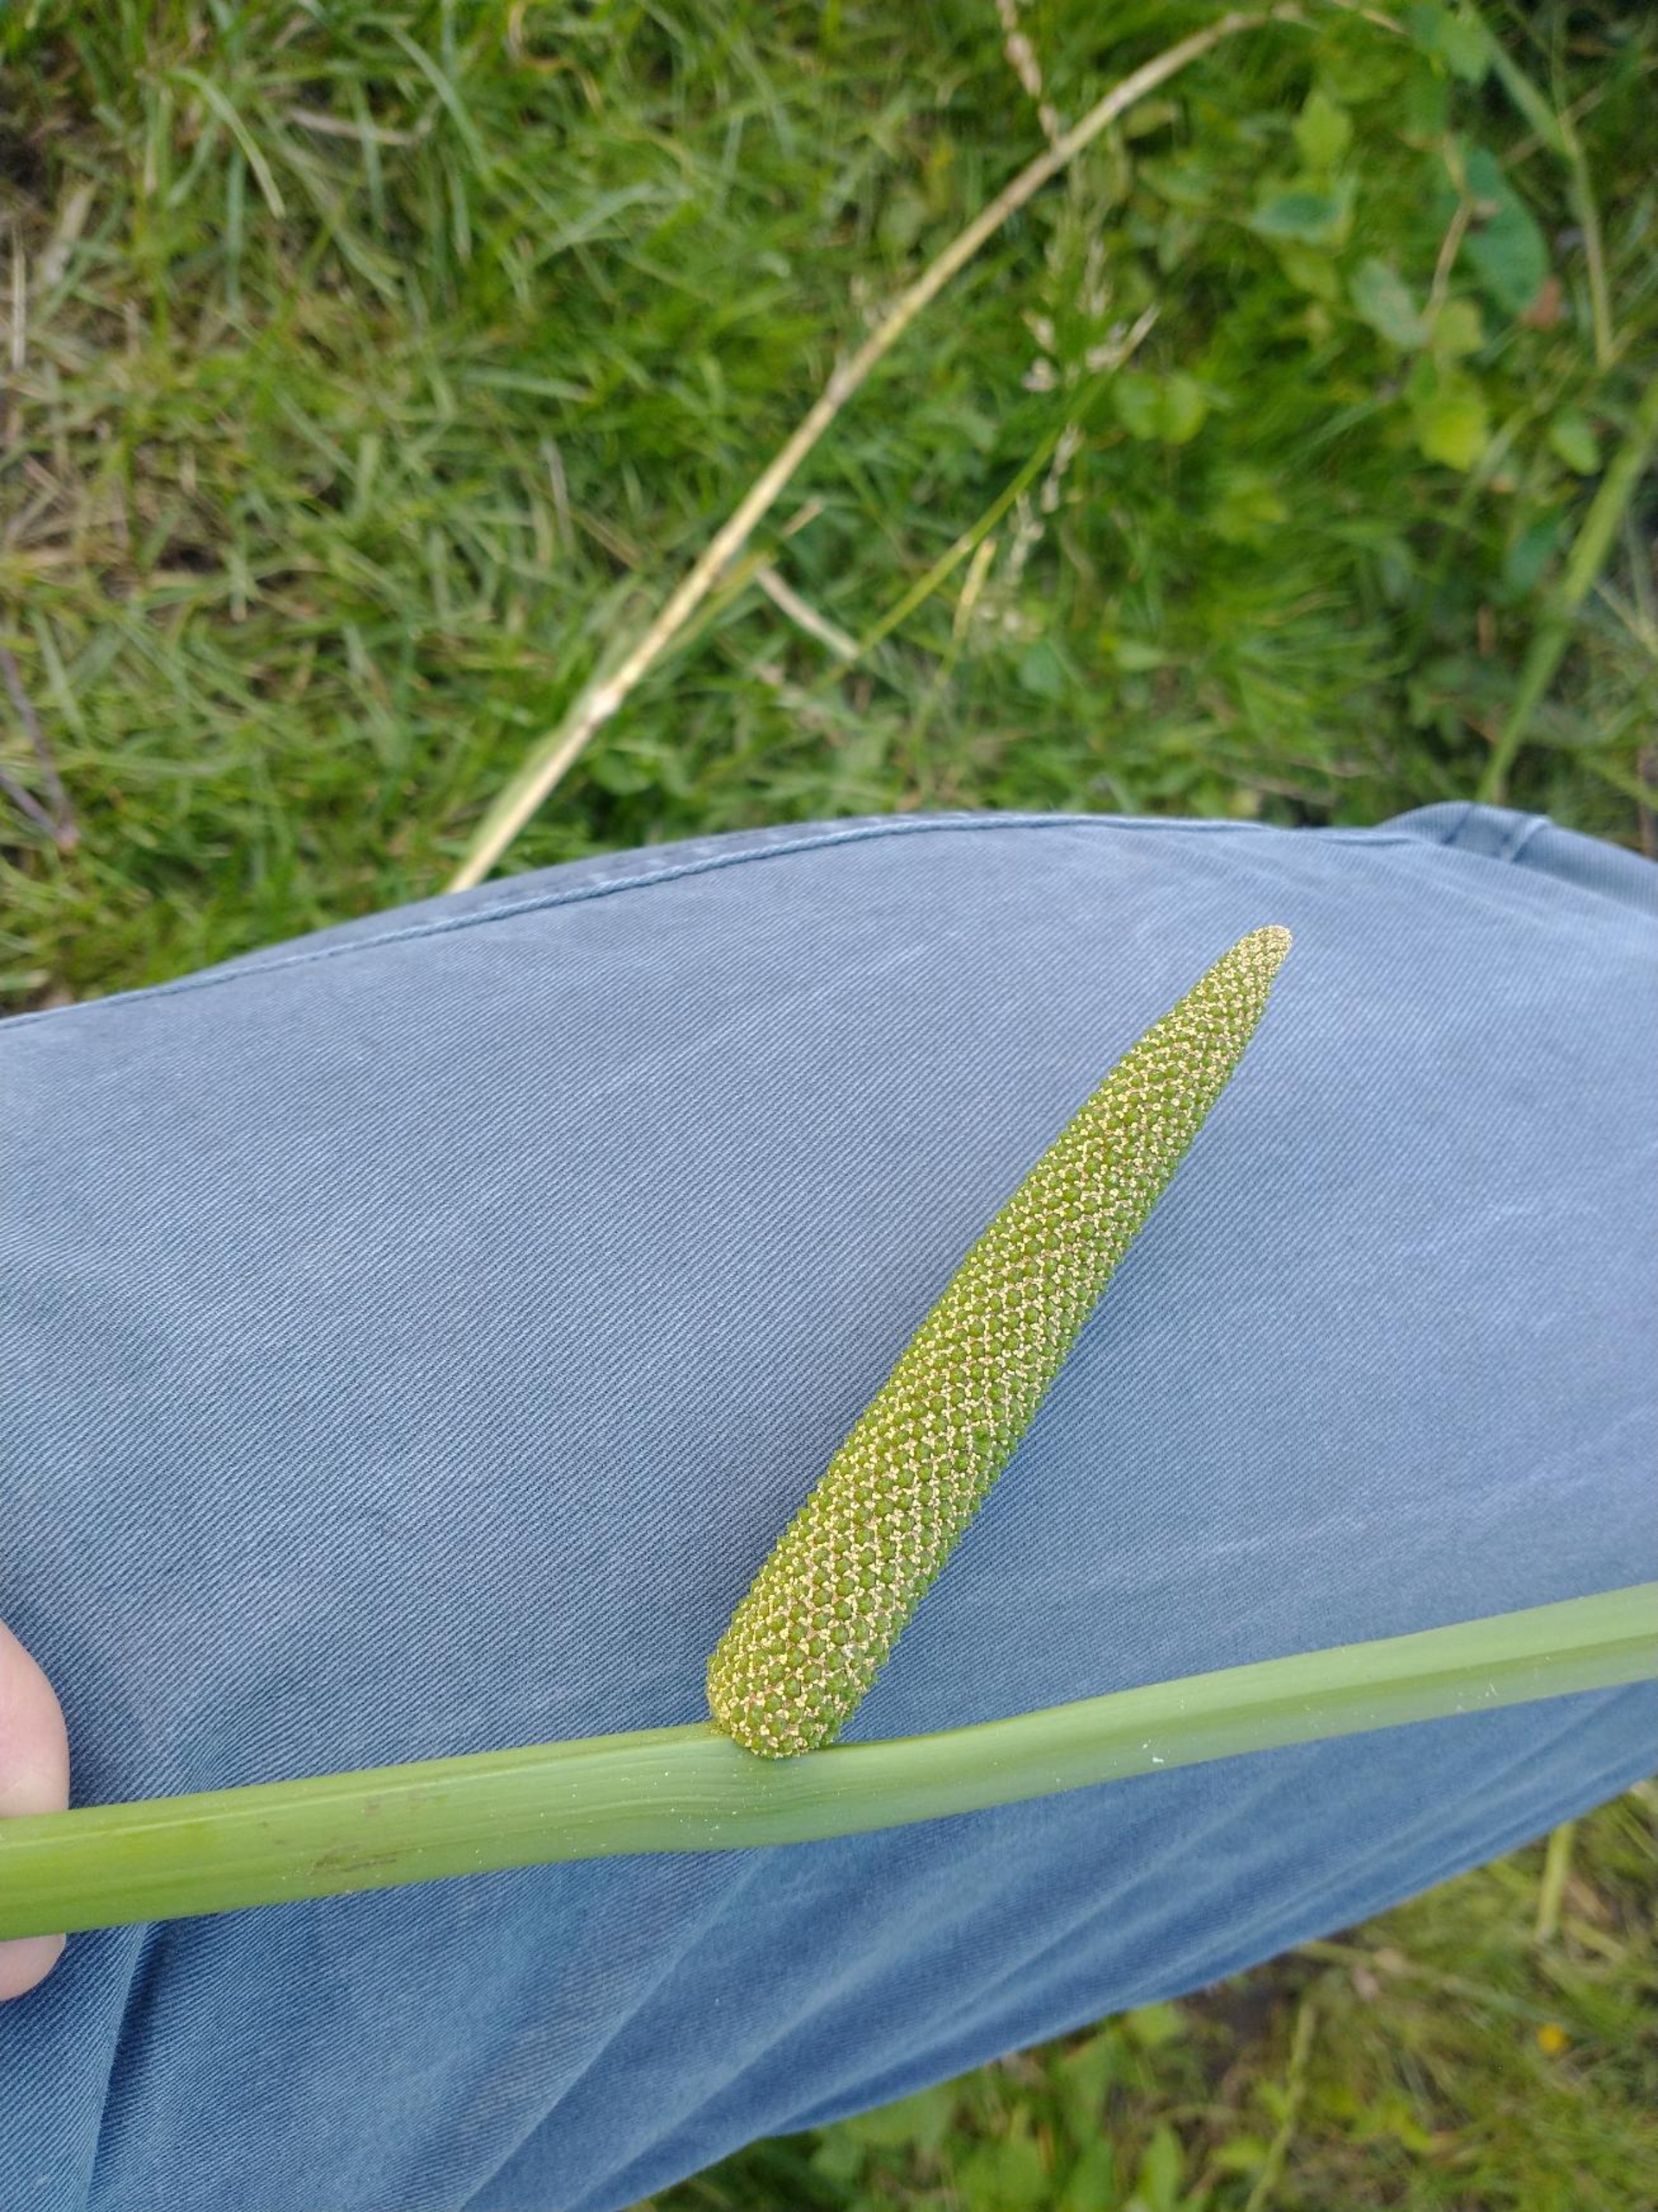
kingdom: Plantae
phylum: Tracheophyta
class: Liliopsida
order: Acorales
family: Acoraceae
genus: Acorus
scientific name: Acorus calamus
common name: Kalmus
